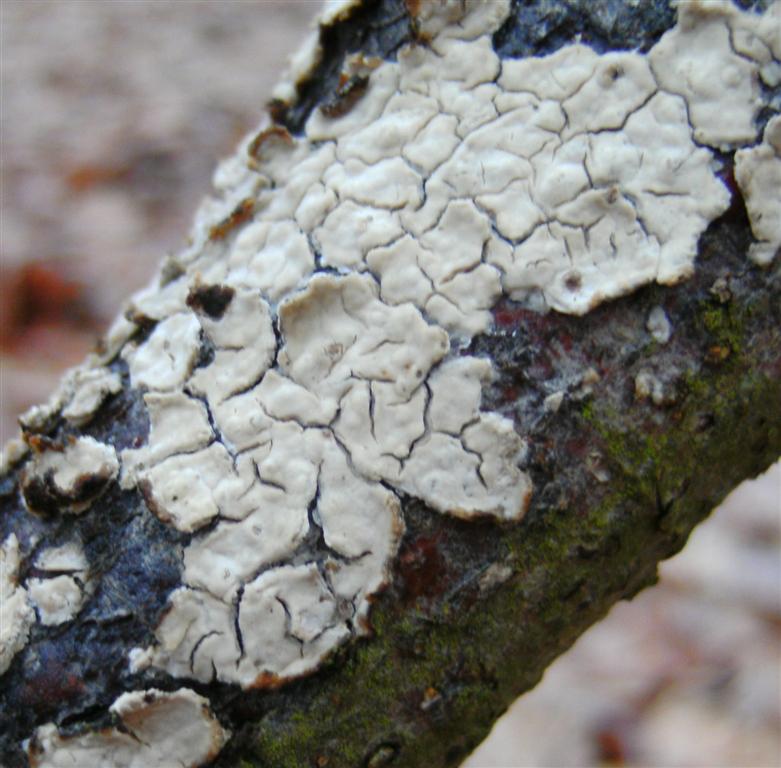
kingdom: Fungi
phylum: Basidiomycota
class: Agaricomycetes
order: Agaricales
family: Physalacriaceae
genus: Cylindrobasidium
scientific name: Cylindrobasidium evolvens
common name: sprækkehinde
